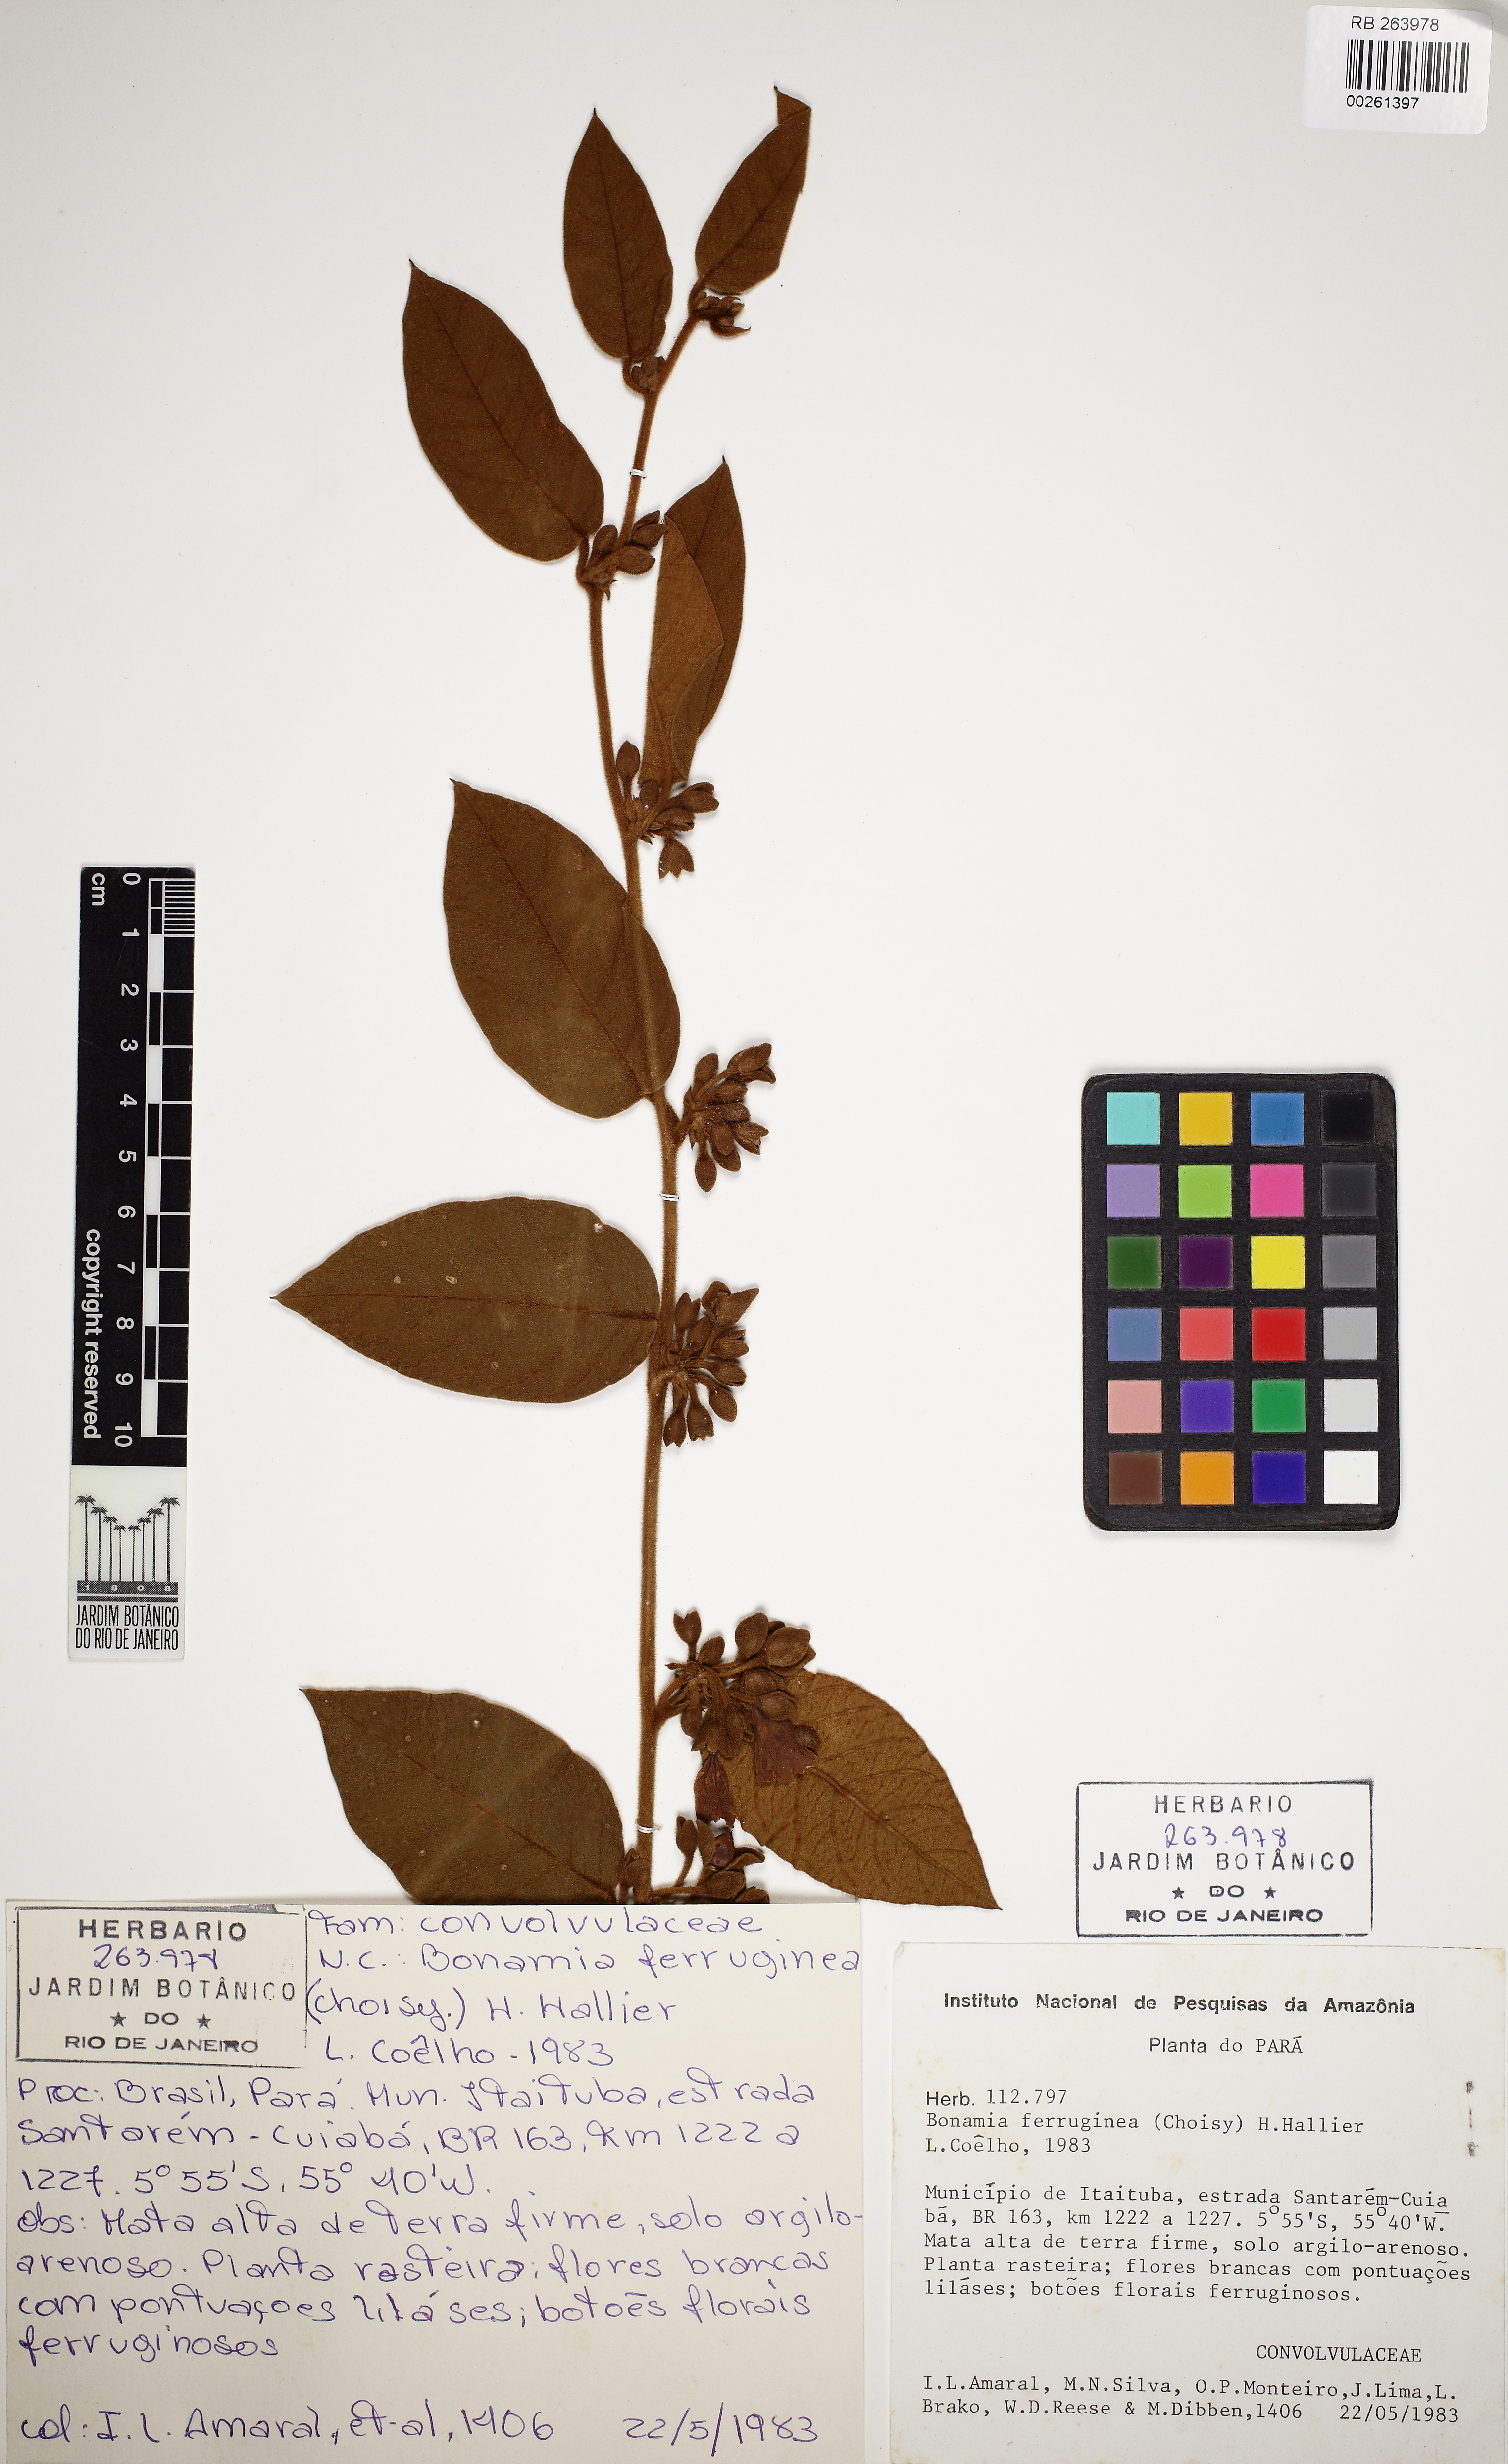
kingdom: Plantae
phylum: Tracheophyta
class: Magnoliopsida
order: Solanales
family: Convolvulaceae
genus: Bonamia
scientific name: Bonamia ferruginea
